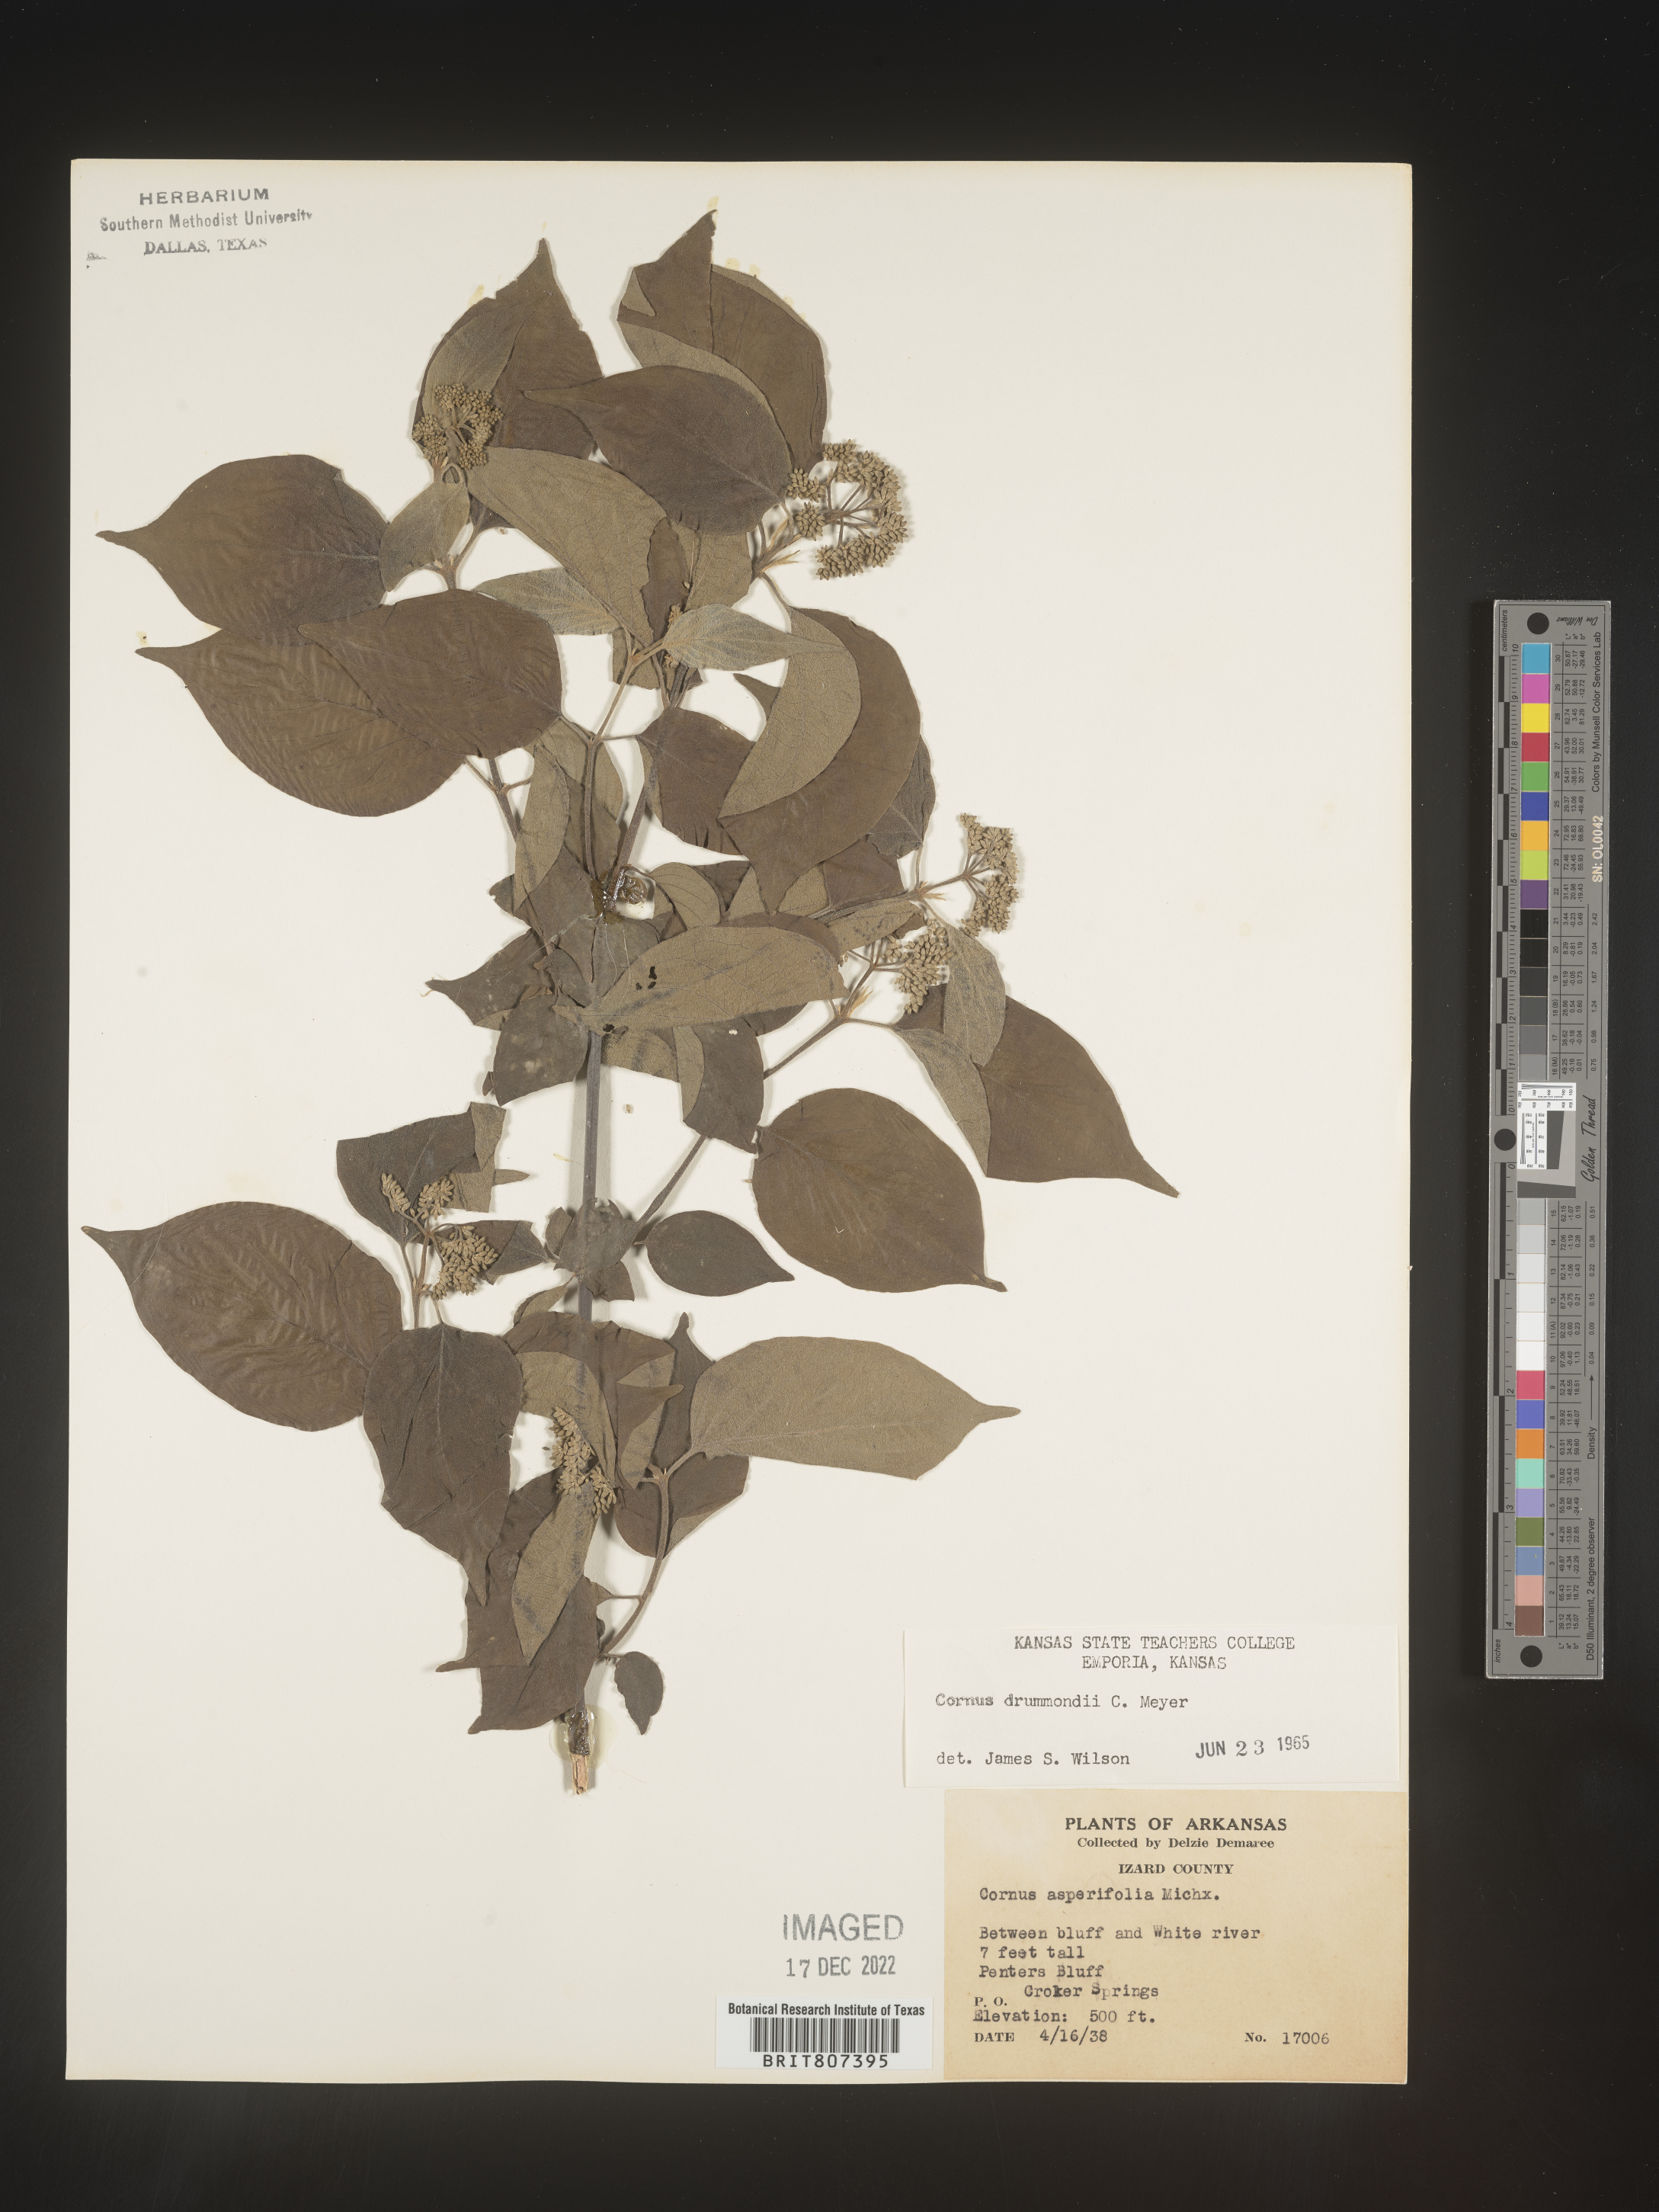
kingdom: Plantae
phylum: Tracheophyta
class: Magnoliopsida
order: Cornales
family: Cornaceae
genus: Cornus
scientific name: Cornus drummondii
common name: Rough-leaf dogwood
